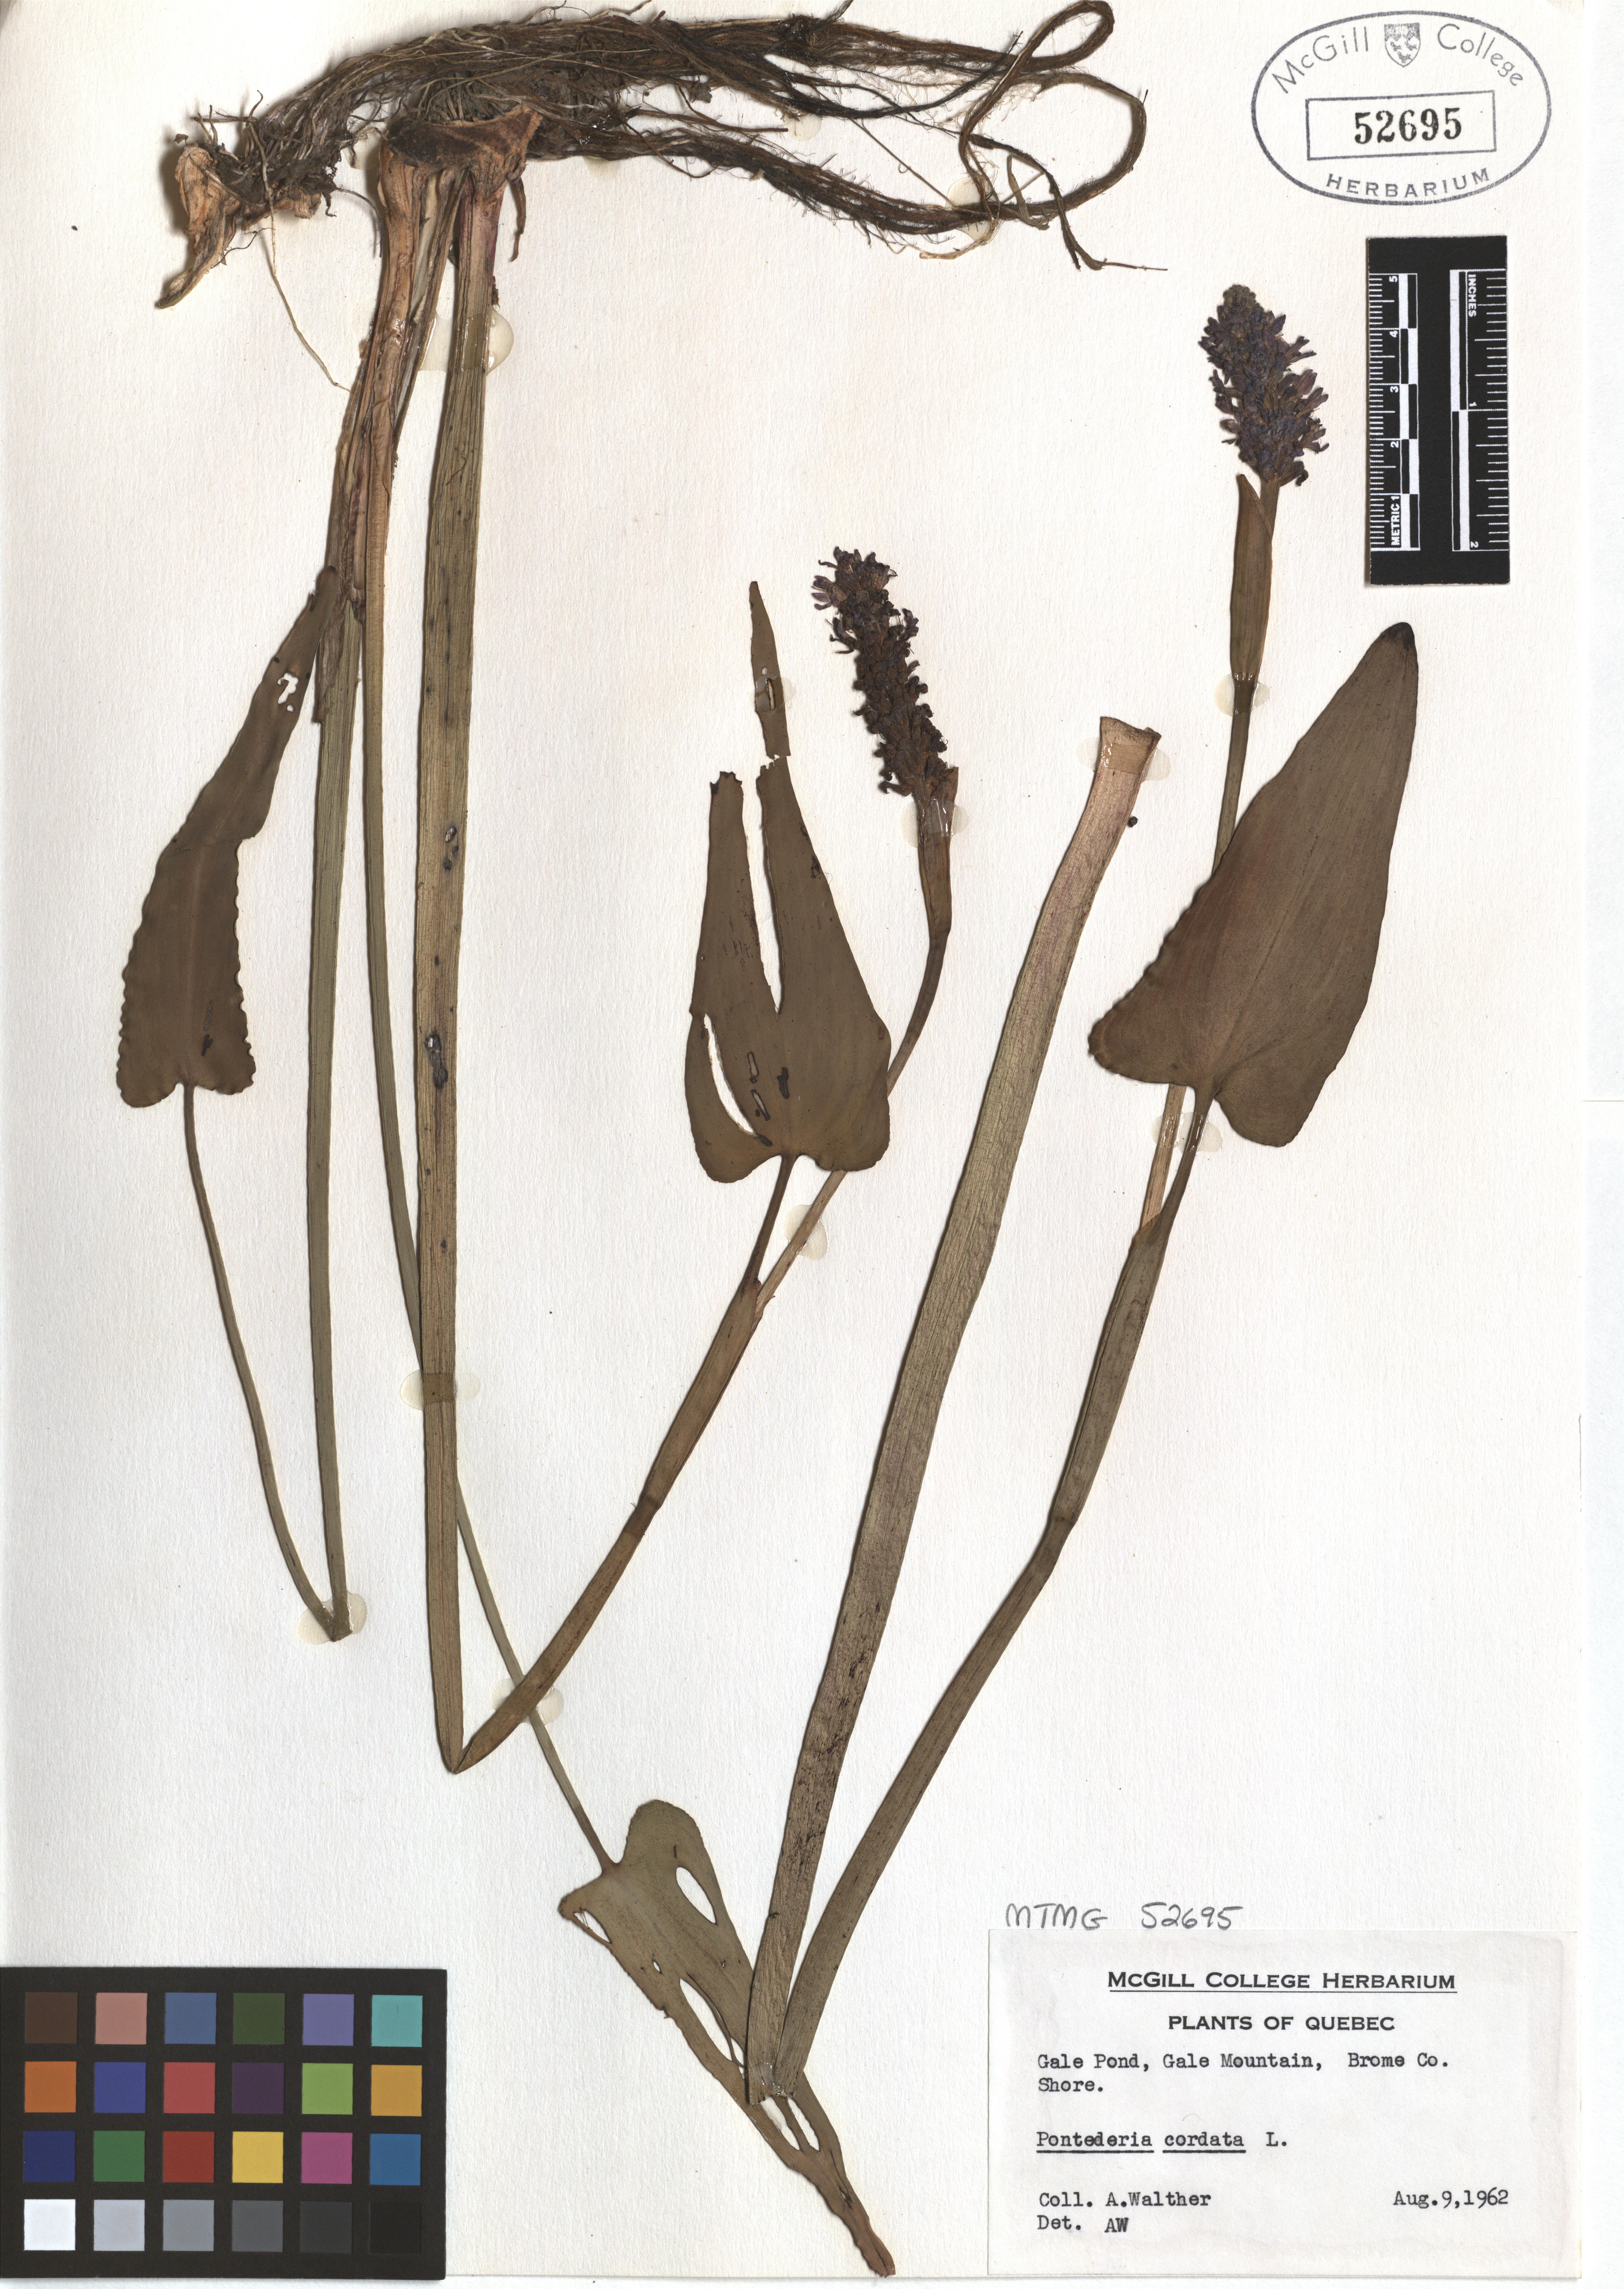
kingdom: Plantae
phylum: Tracheophyta
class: Liliopsida
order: Commelinales
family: Pontederiaceae
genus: Pontederia
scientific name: Pontederia cordata
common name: Pickerelweed
